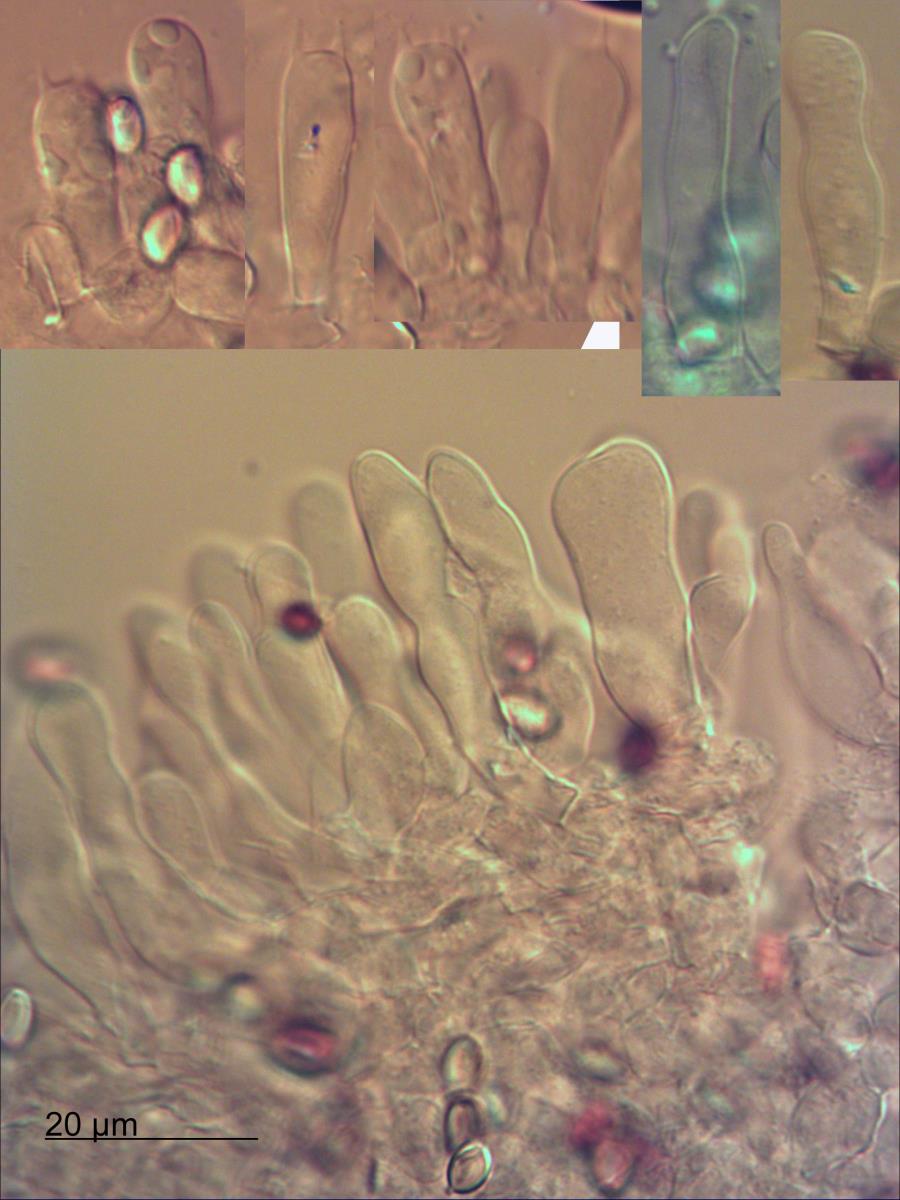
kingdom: Fungi
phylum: Basidiomycota
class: Agaricomycetes
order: Agaricales
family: Agaricaceae
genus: Leucoagaricus
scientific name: Leucoagaricus
